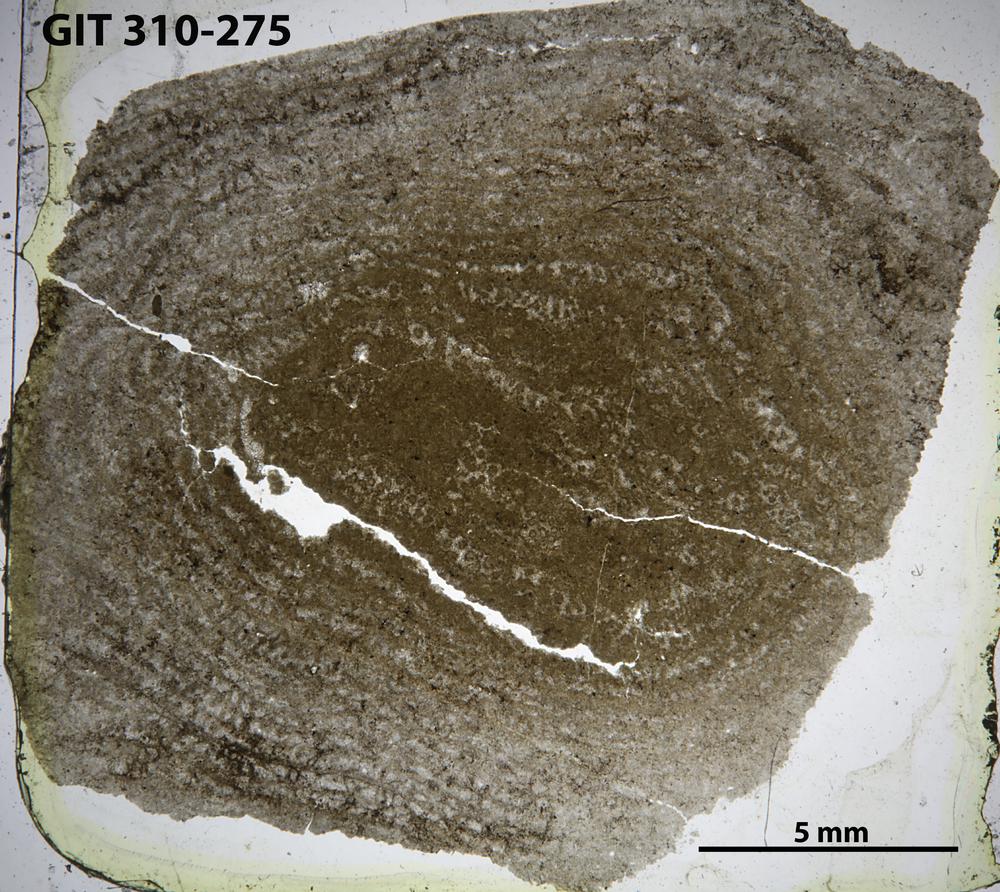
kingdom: Animalia
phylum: Porifera
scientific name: Porifera
